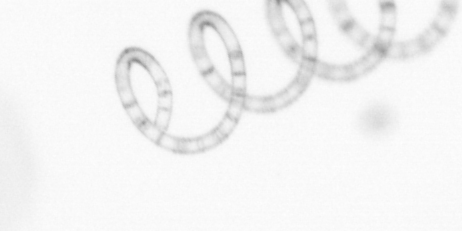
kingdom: Chromista
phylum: Ochrophyta
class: Bacillariophyceae
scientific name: Bacillariophyceae
